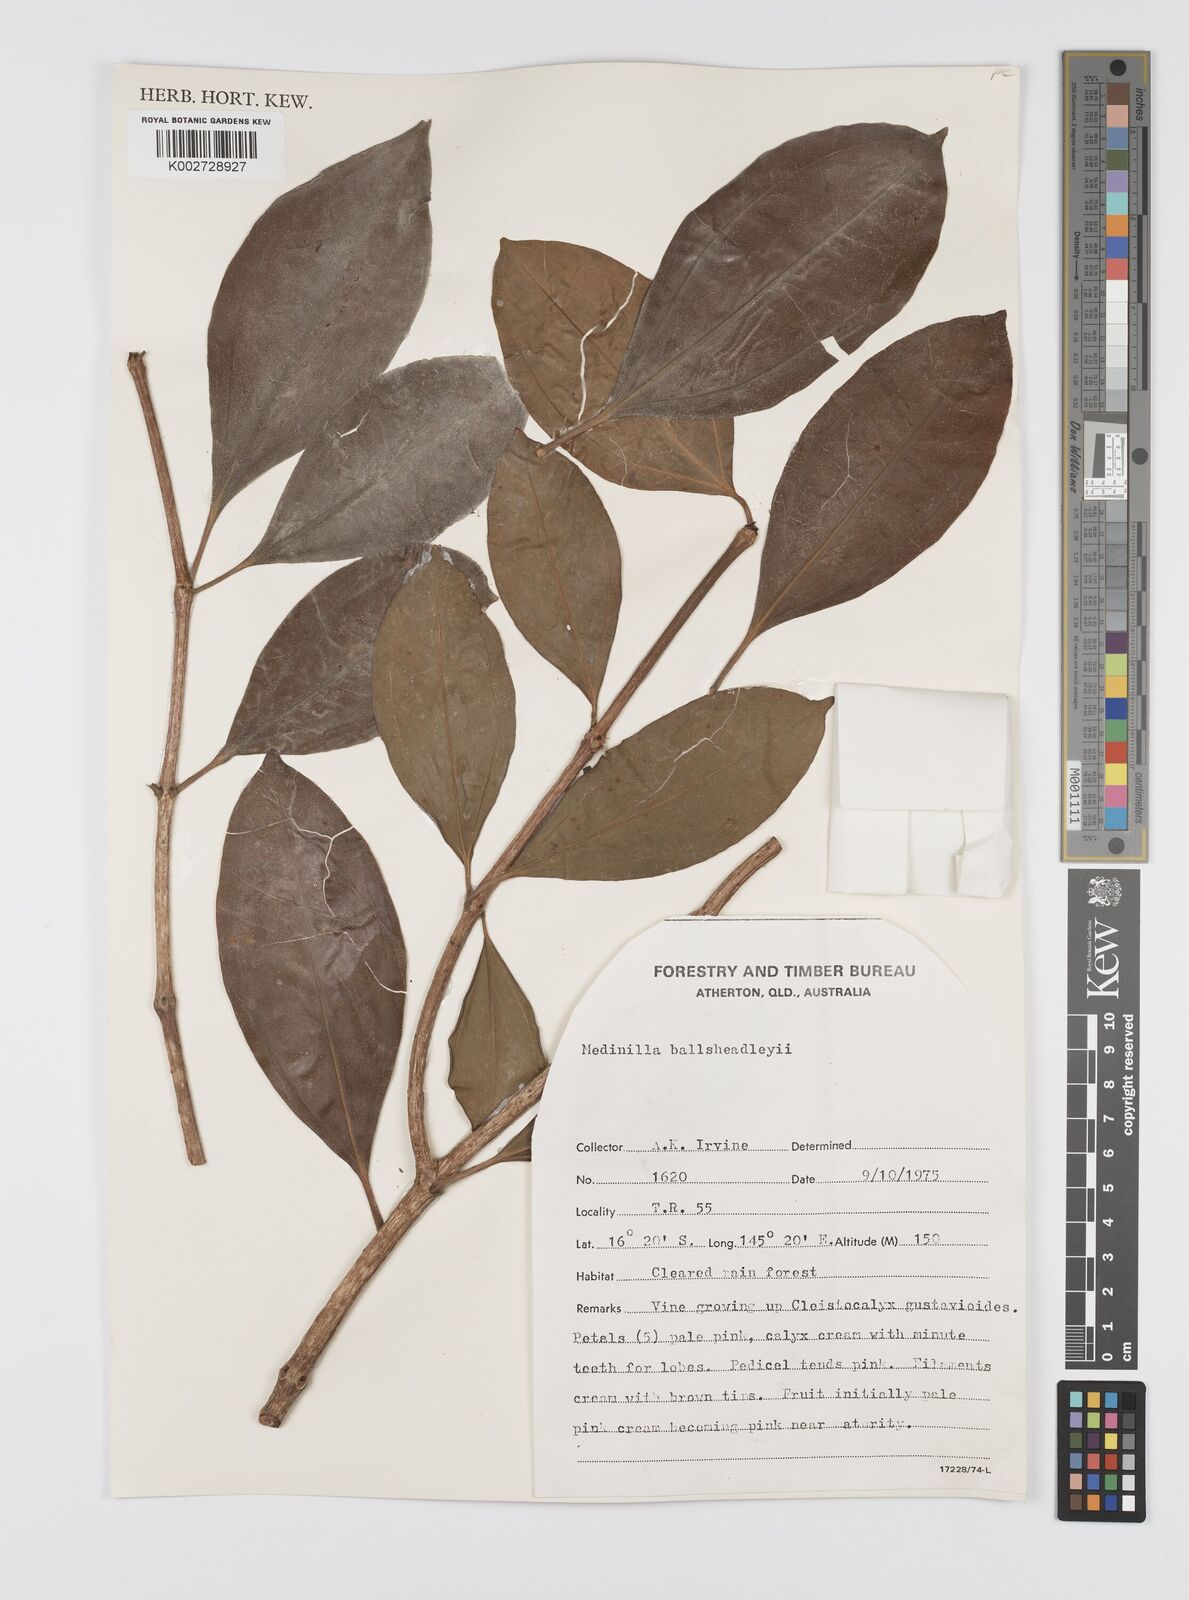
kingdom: Plantae
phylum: Tracheophyta
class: Magnoliopsida
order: Myrtales
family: Melastomataceae
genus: Medinilla
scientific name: Medinilla balls-headleyi
